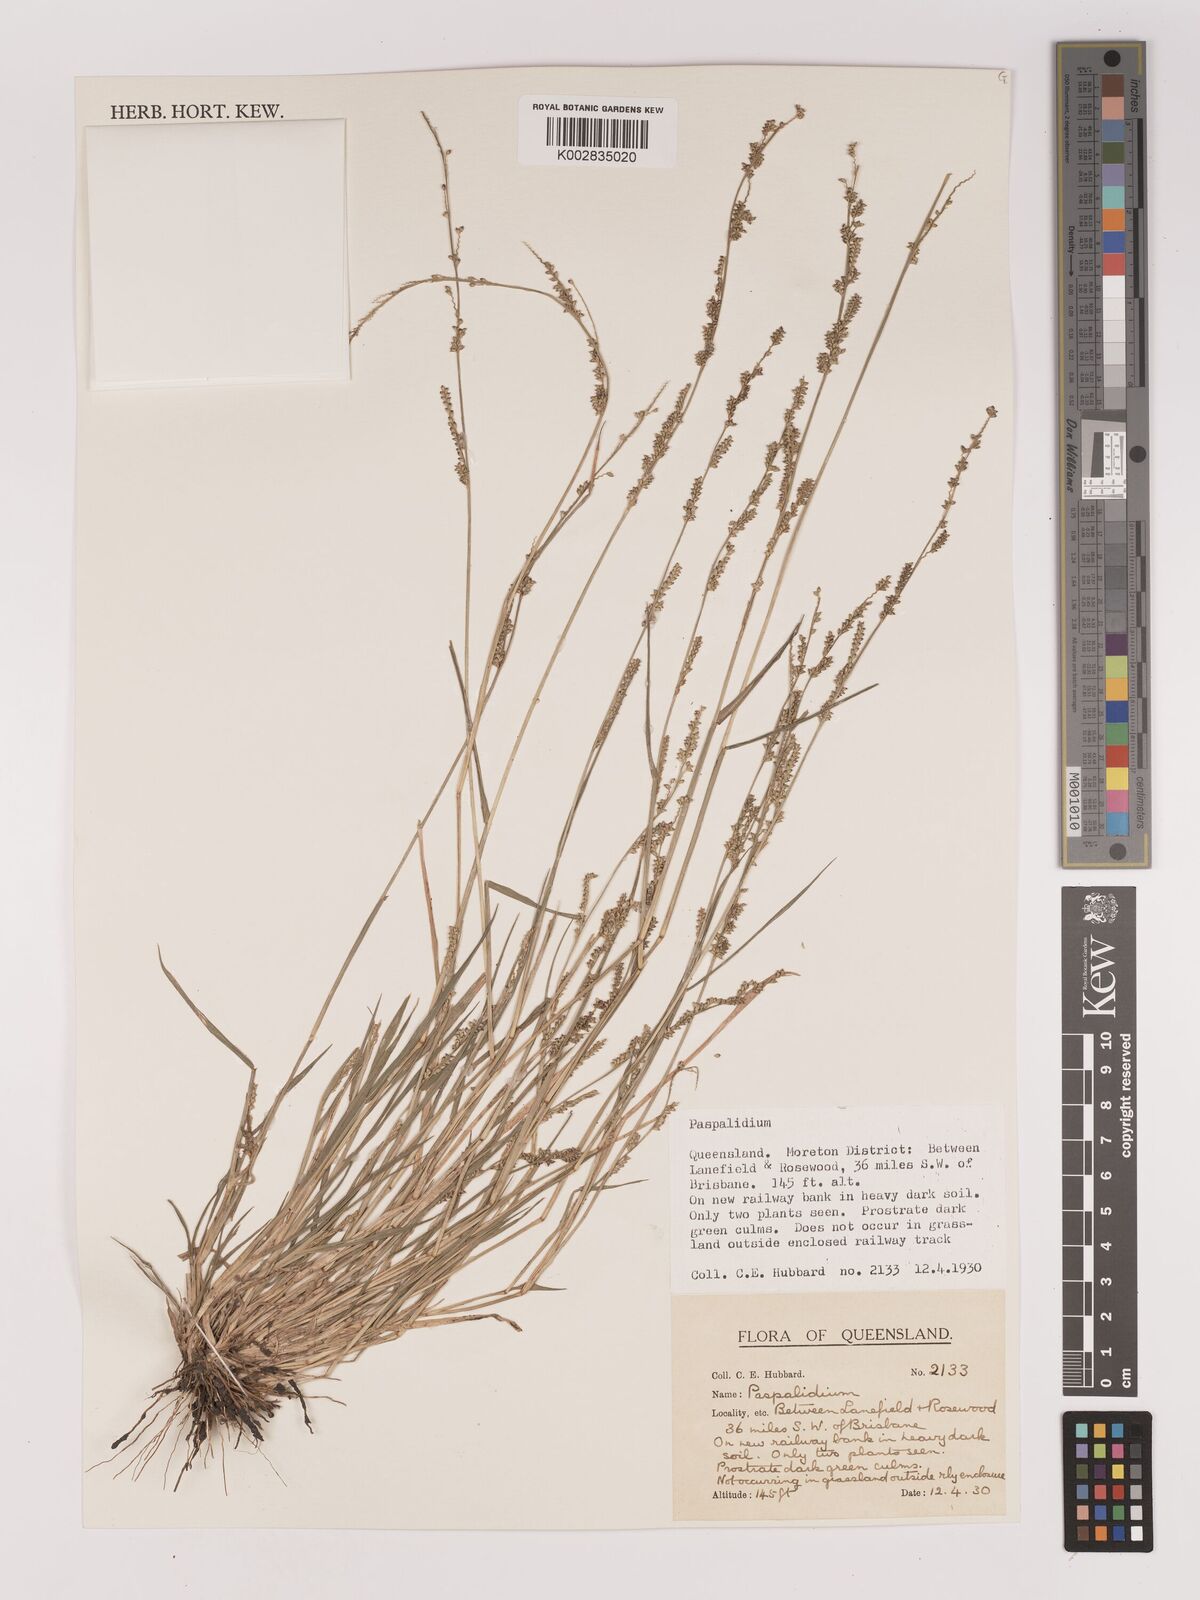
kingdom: Plantae
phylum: Tracheophyta
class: Liliopsida
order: Poales
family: Poaceae
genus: Setaria
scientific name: Setaria
